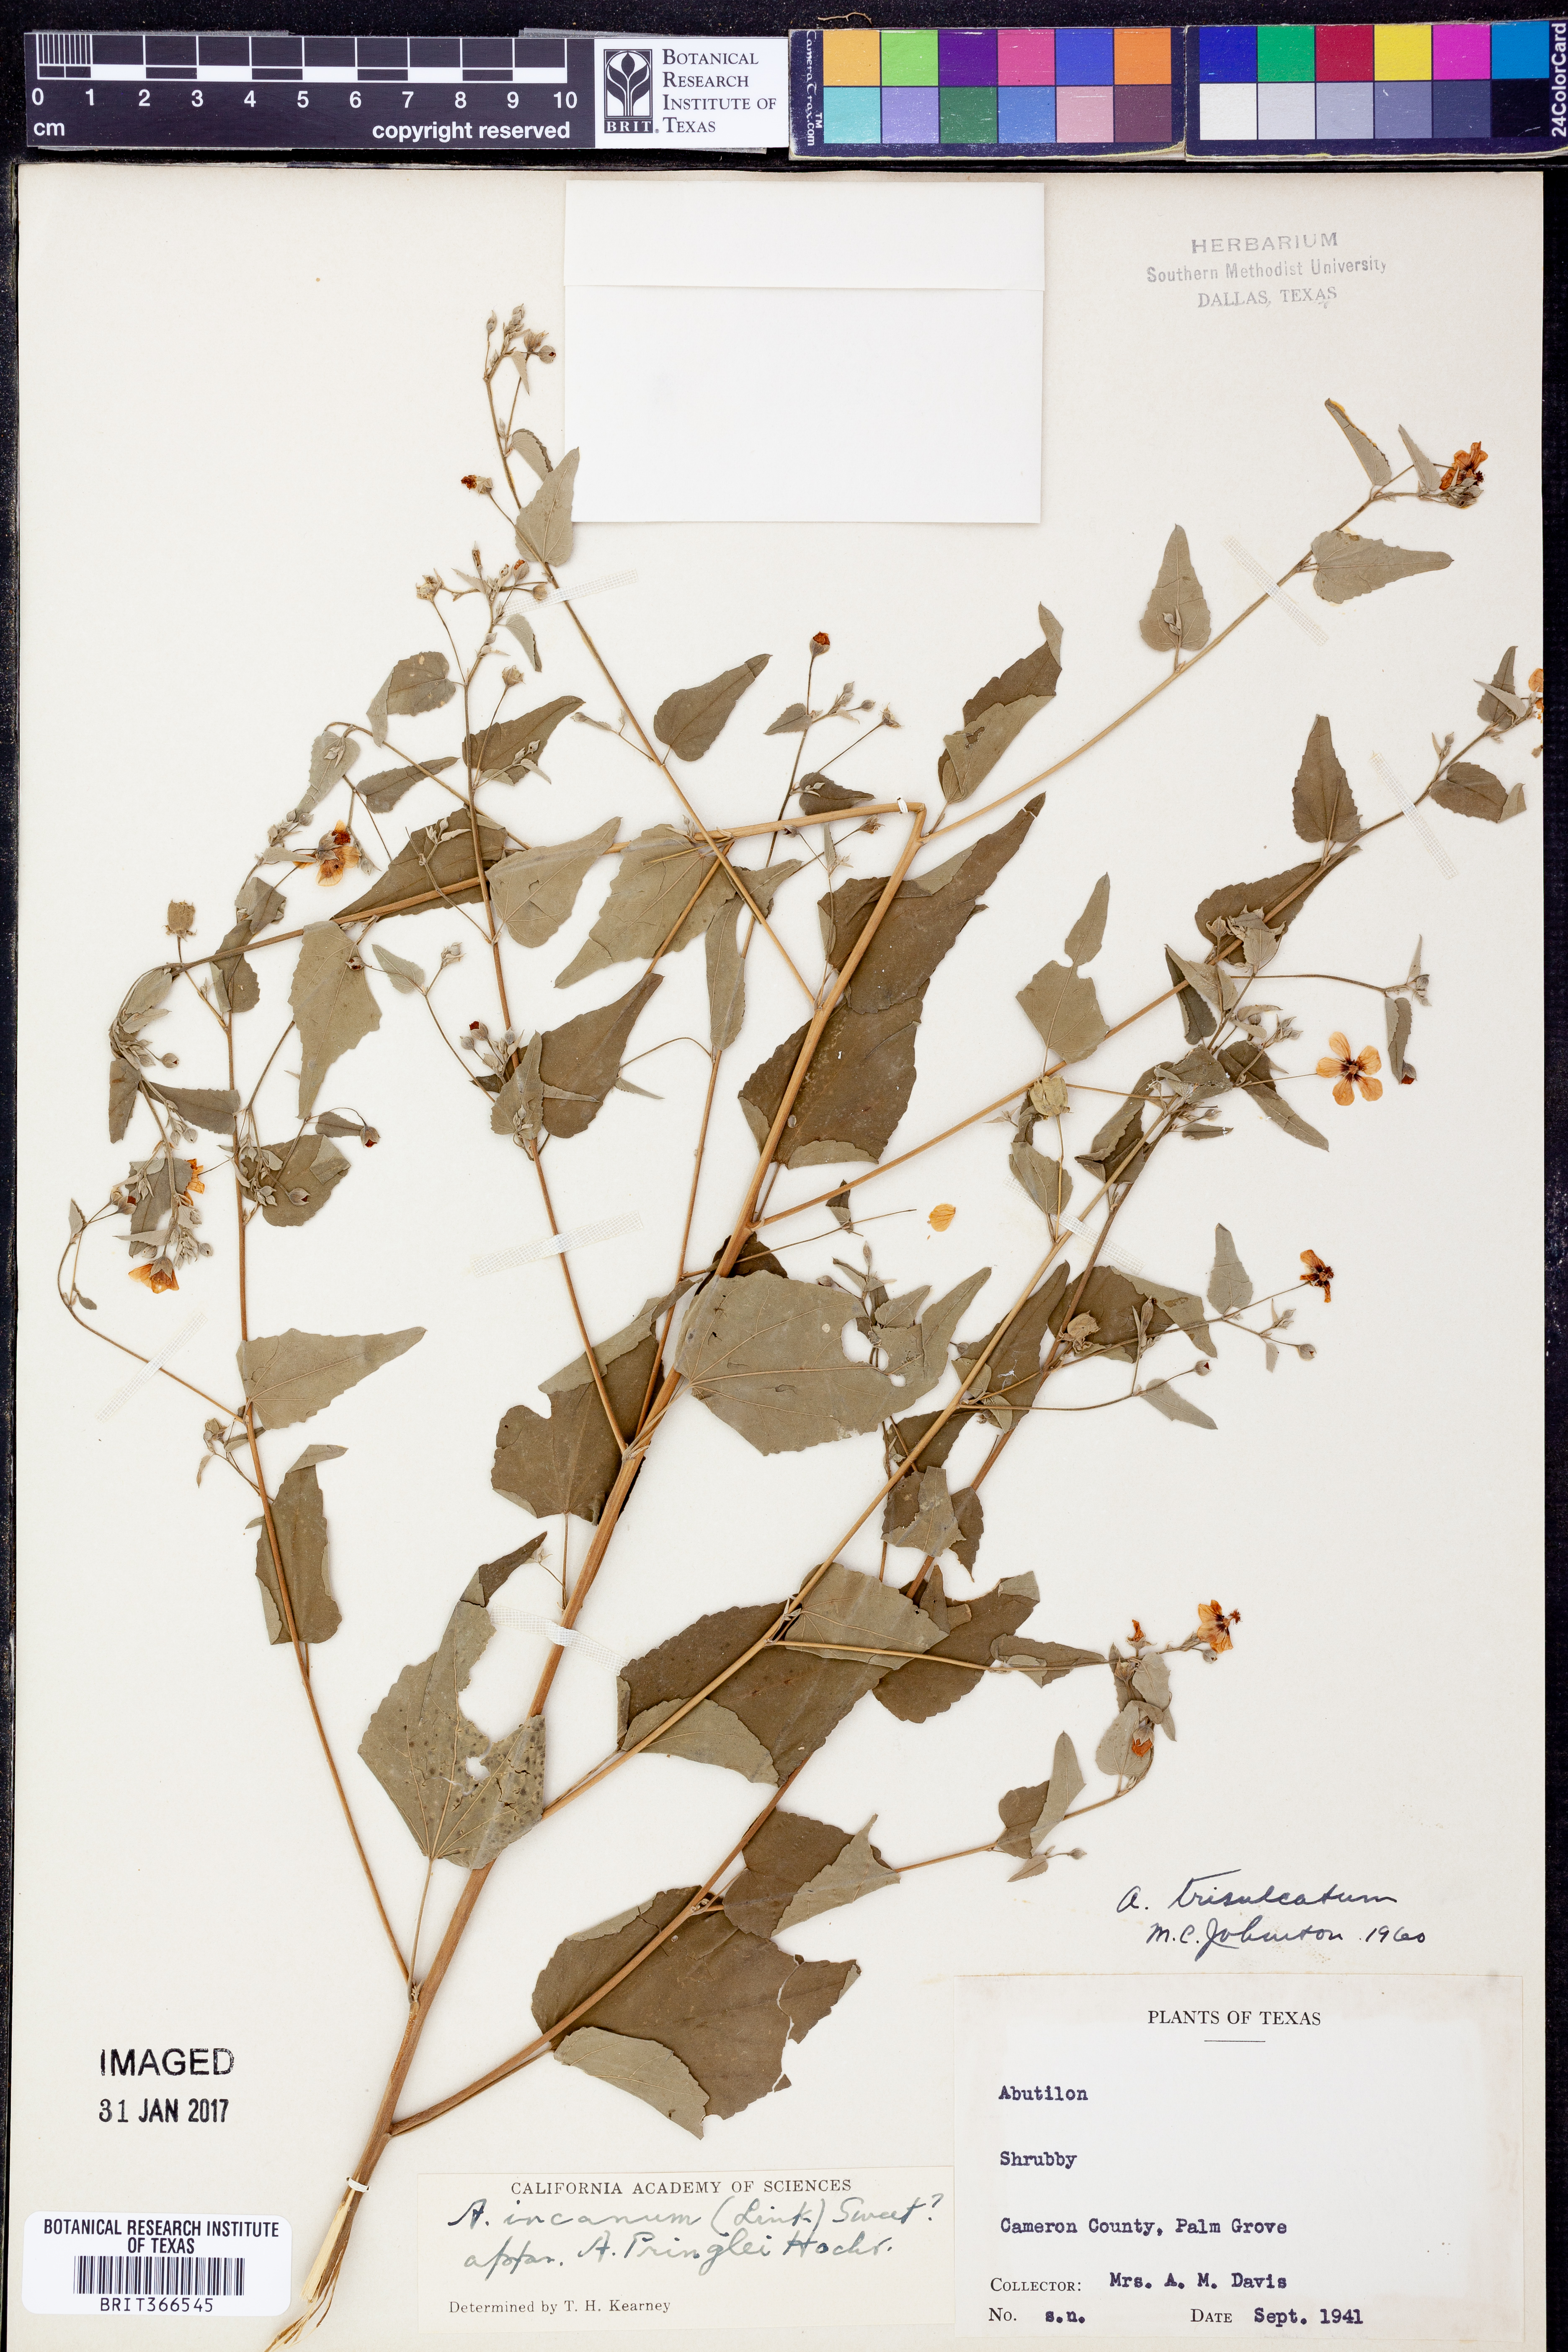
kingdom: Plantae
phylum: Tracheophyta
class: Magnoliopsida
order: Malvales
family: Malvaceae
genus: Abutilon
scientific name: Abutilon incanum
